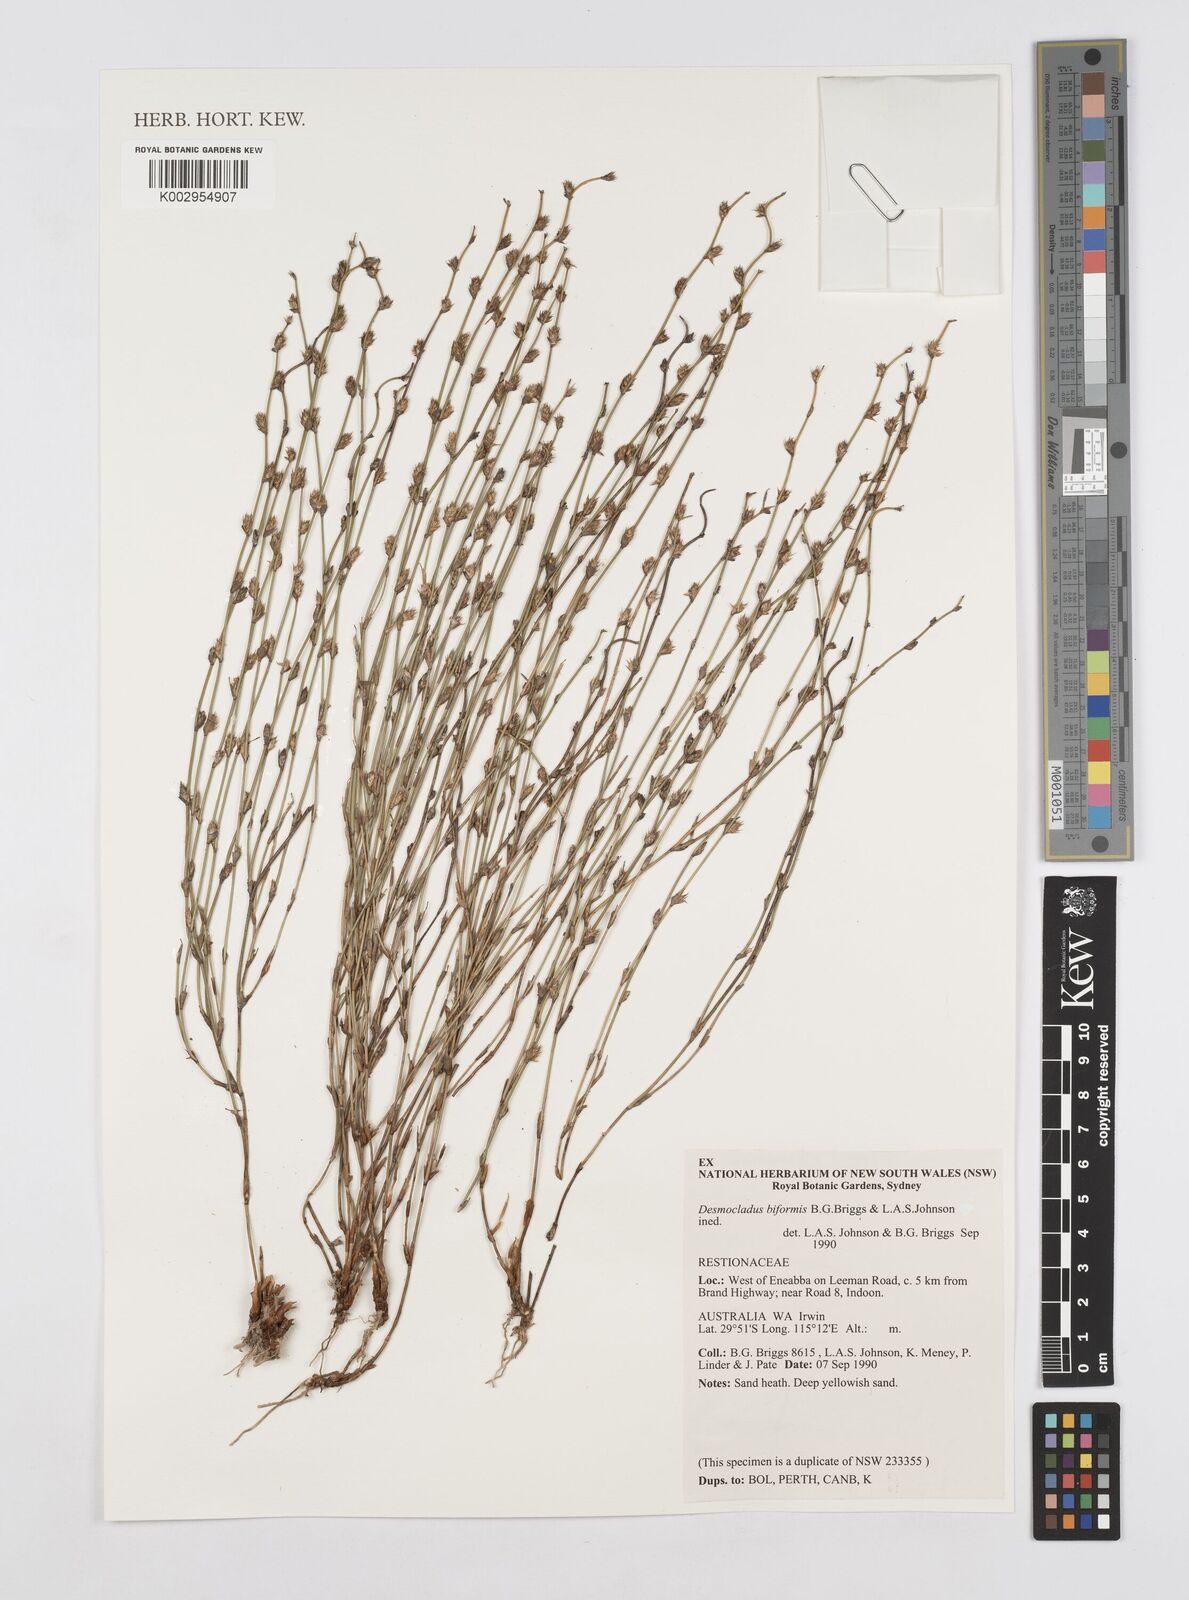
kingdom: Plantae
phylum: Tracheophyta
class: Liliopsida
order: Poales
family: Restionaceae
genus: Desmocladus
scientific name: Desmocladus biformis
